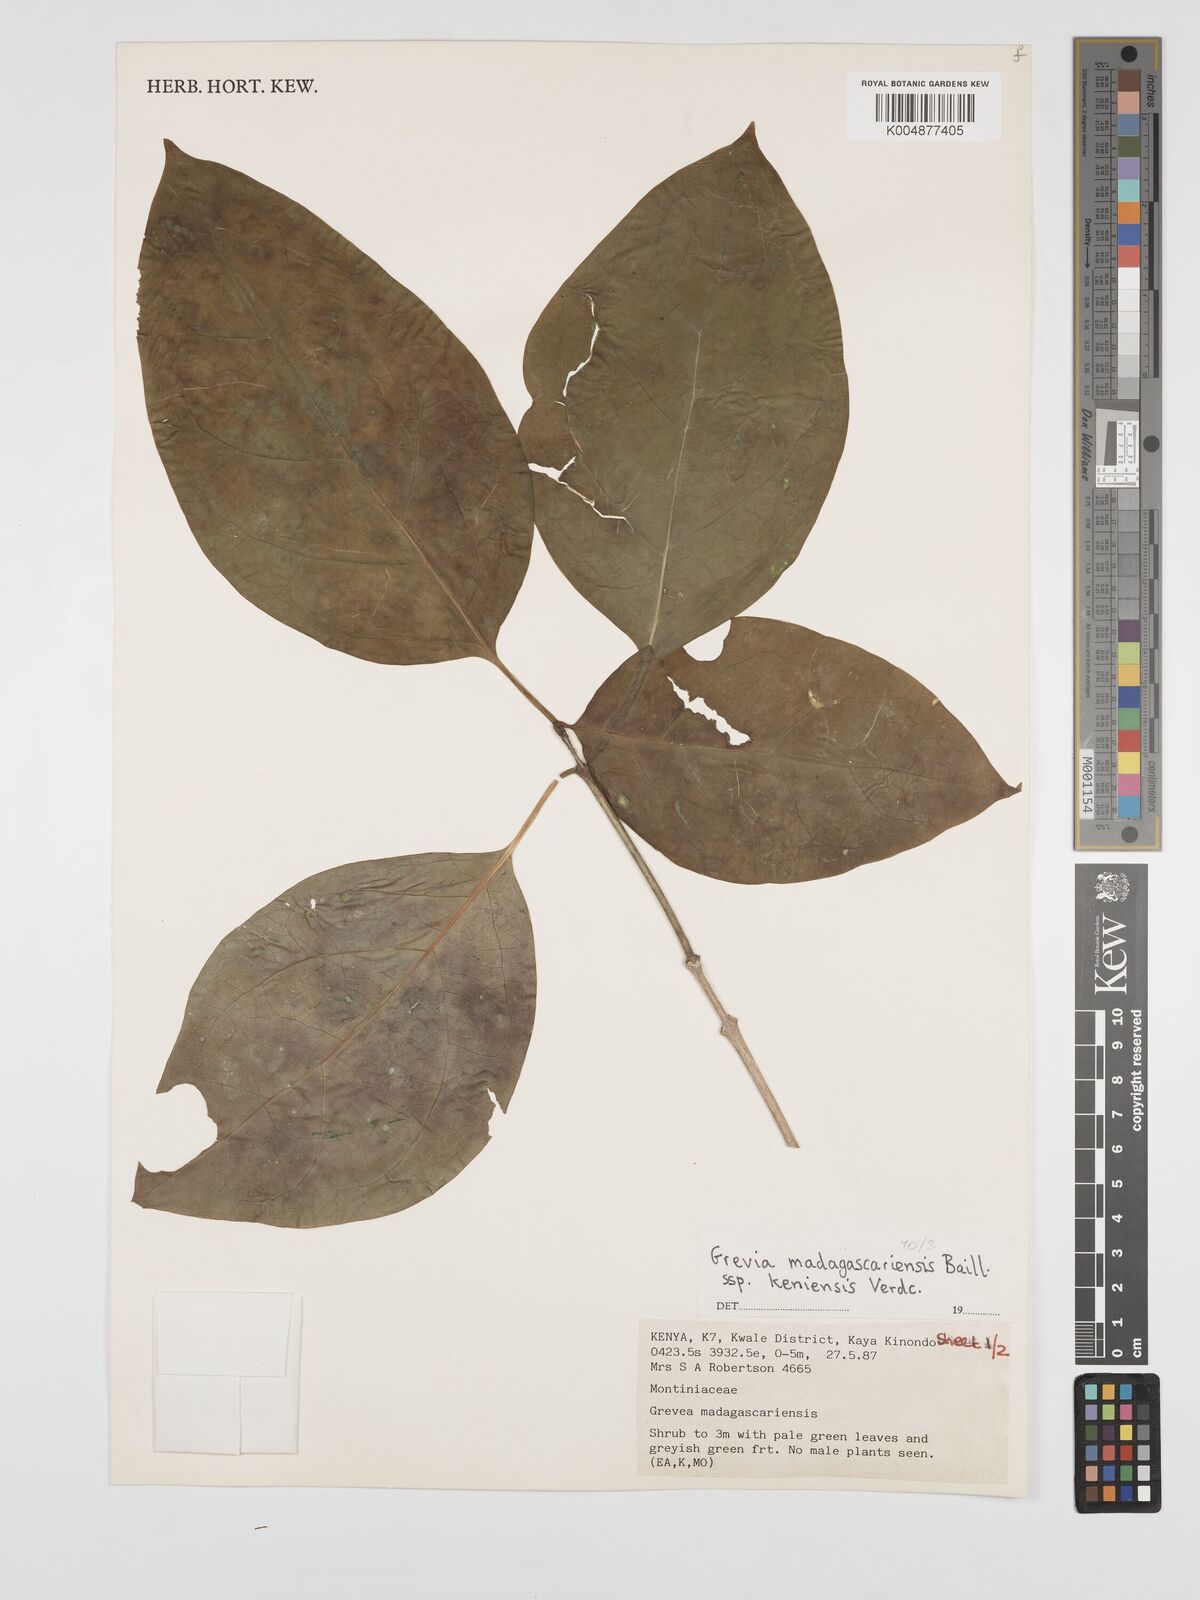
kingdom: Plantae
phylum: Tracheophyta
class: Magnoliopsida
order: Solanales
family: Montiniaceae
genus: Grevea
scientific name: Grevea
